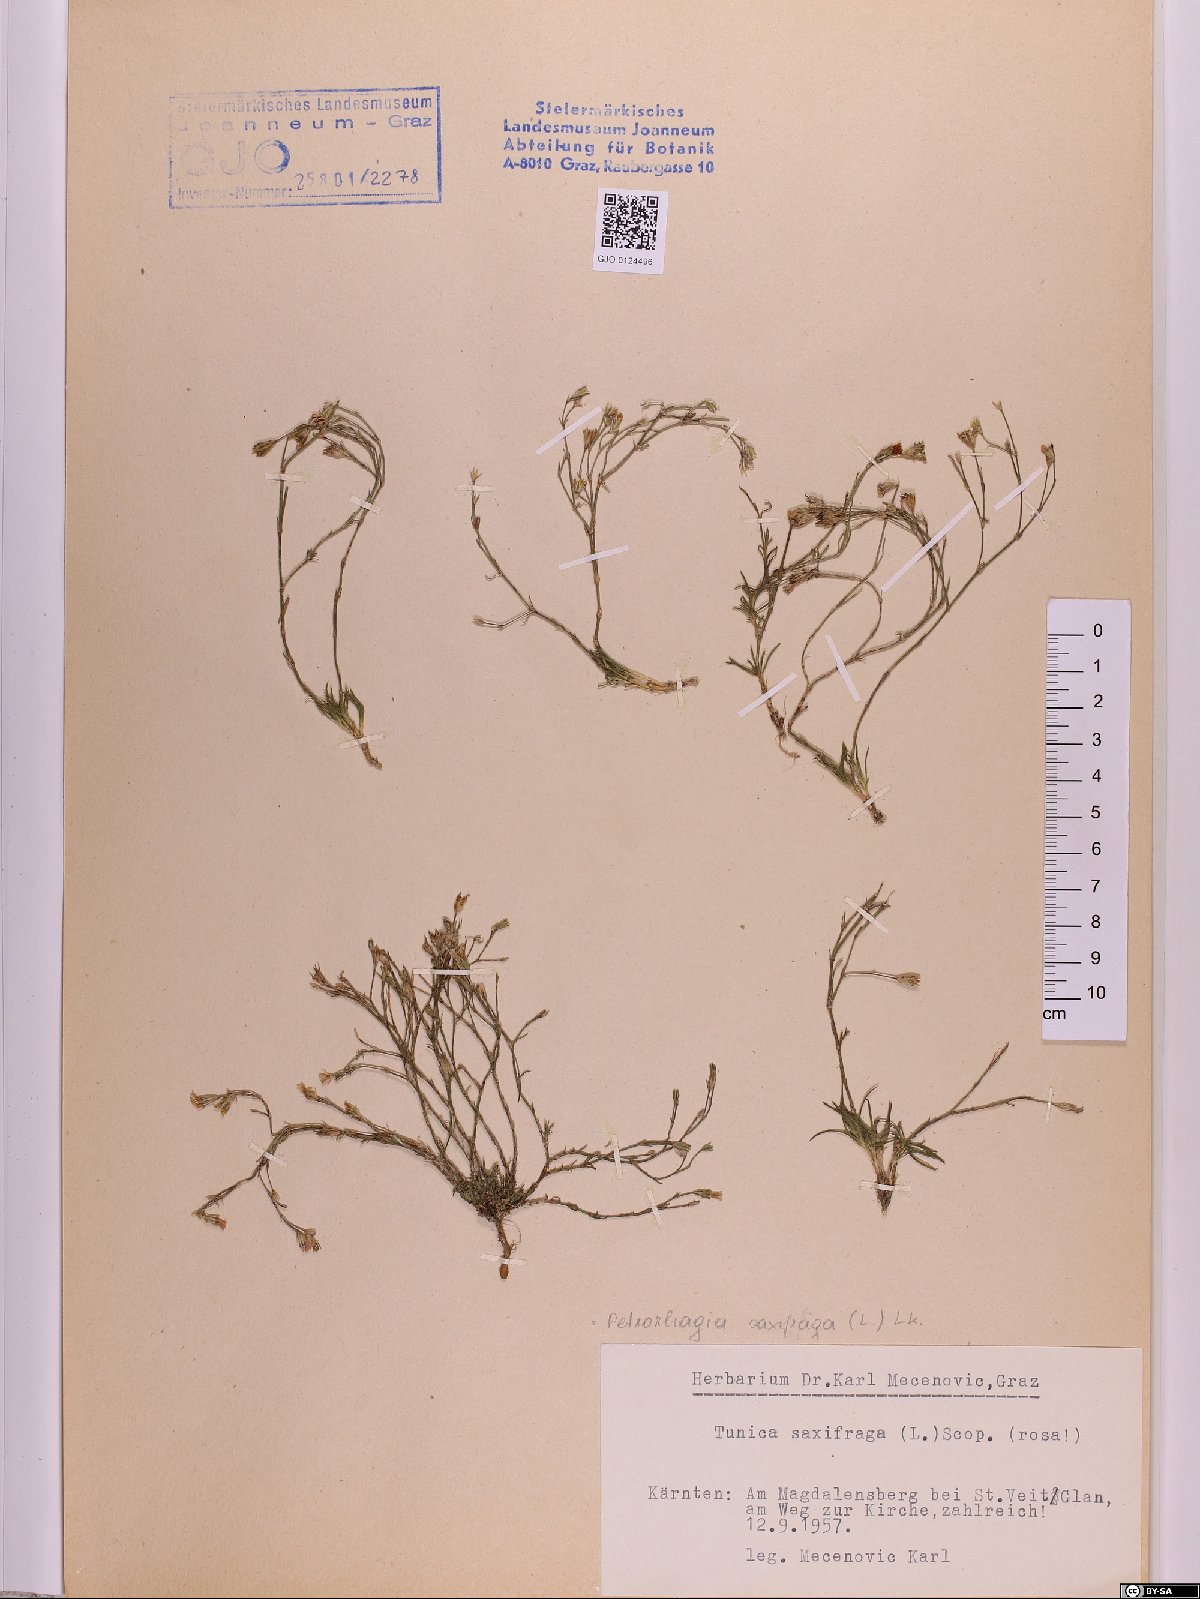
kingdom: Plantae
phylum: Tracheophyta
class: Magnoliopsida
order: Caryophyllales
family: Caryophyllaceae
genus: Petrorhagia
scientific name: Petrorhagia saxifraga
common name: Tunicflower
